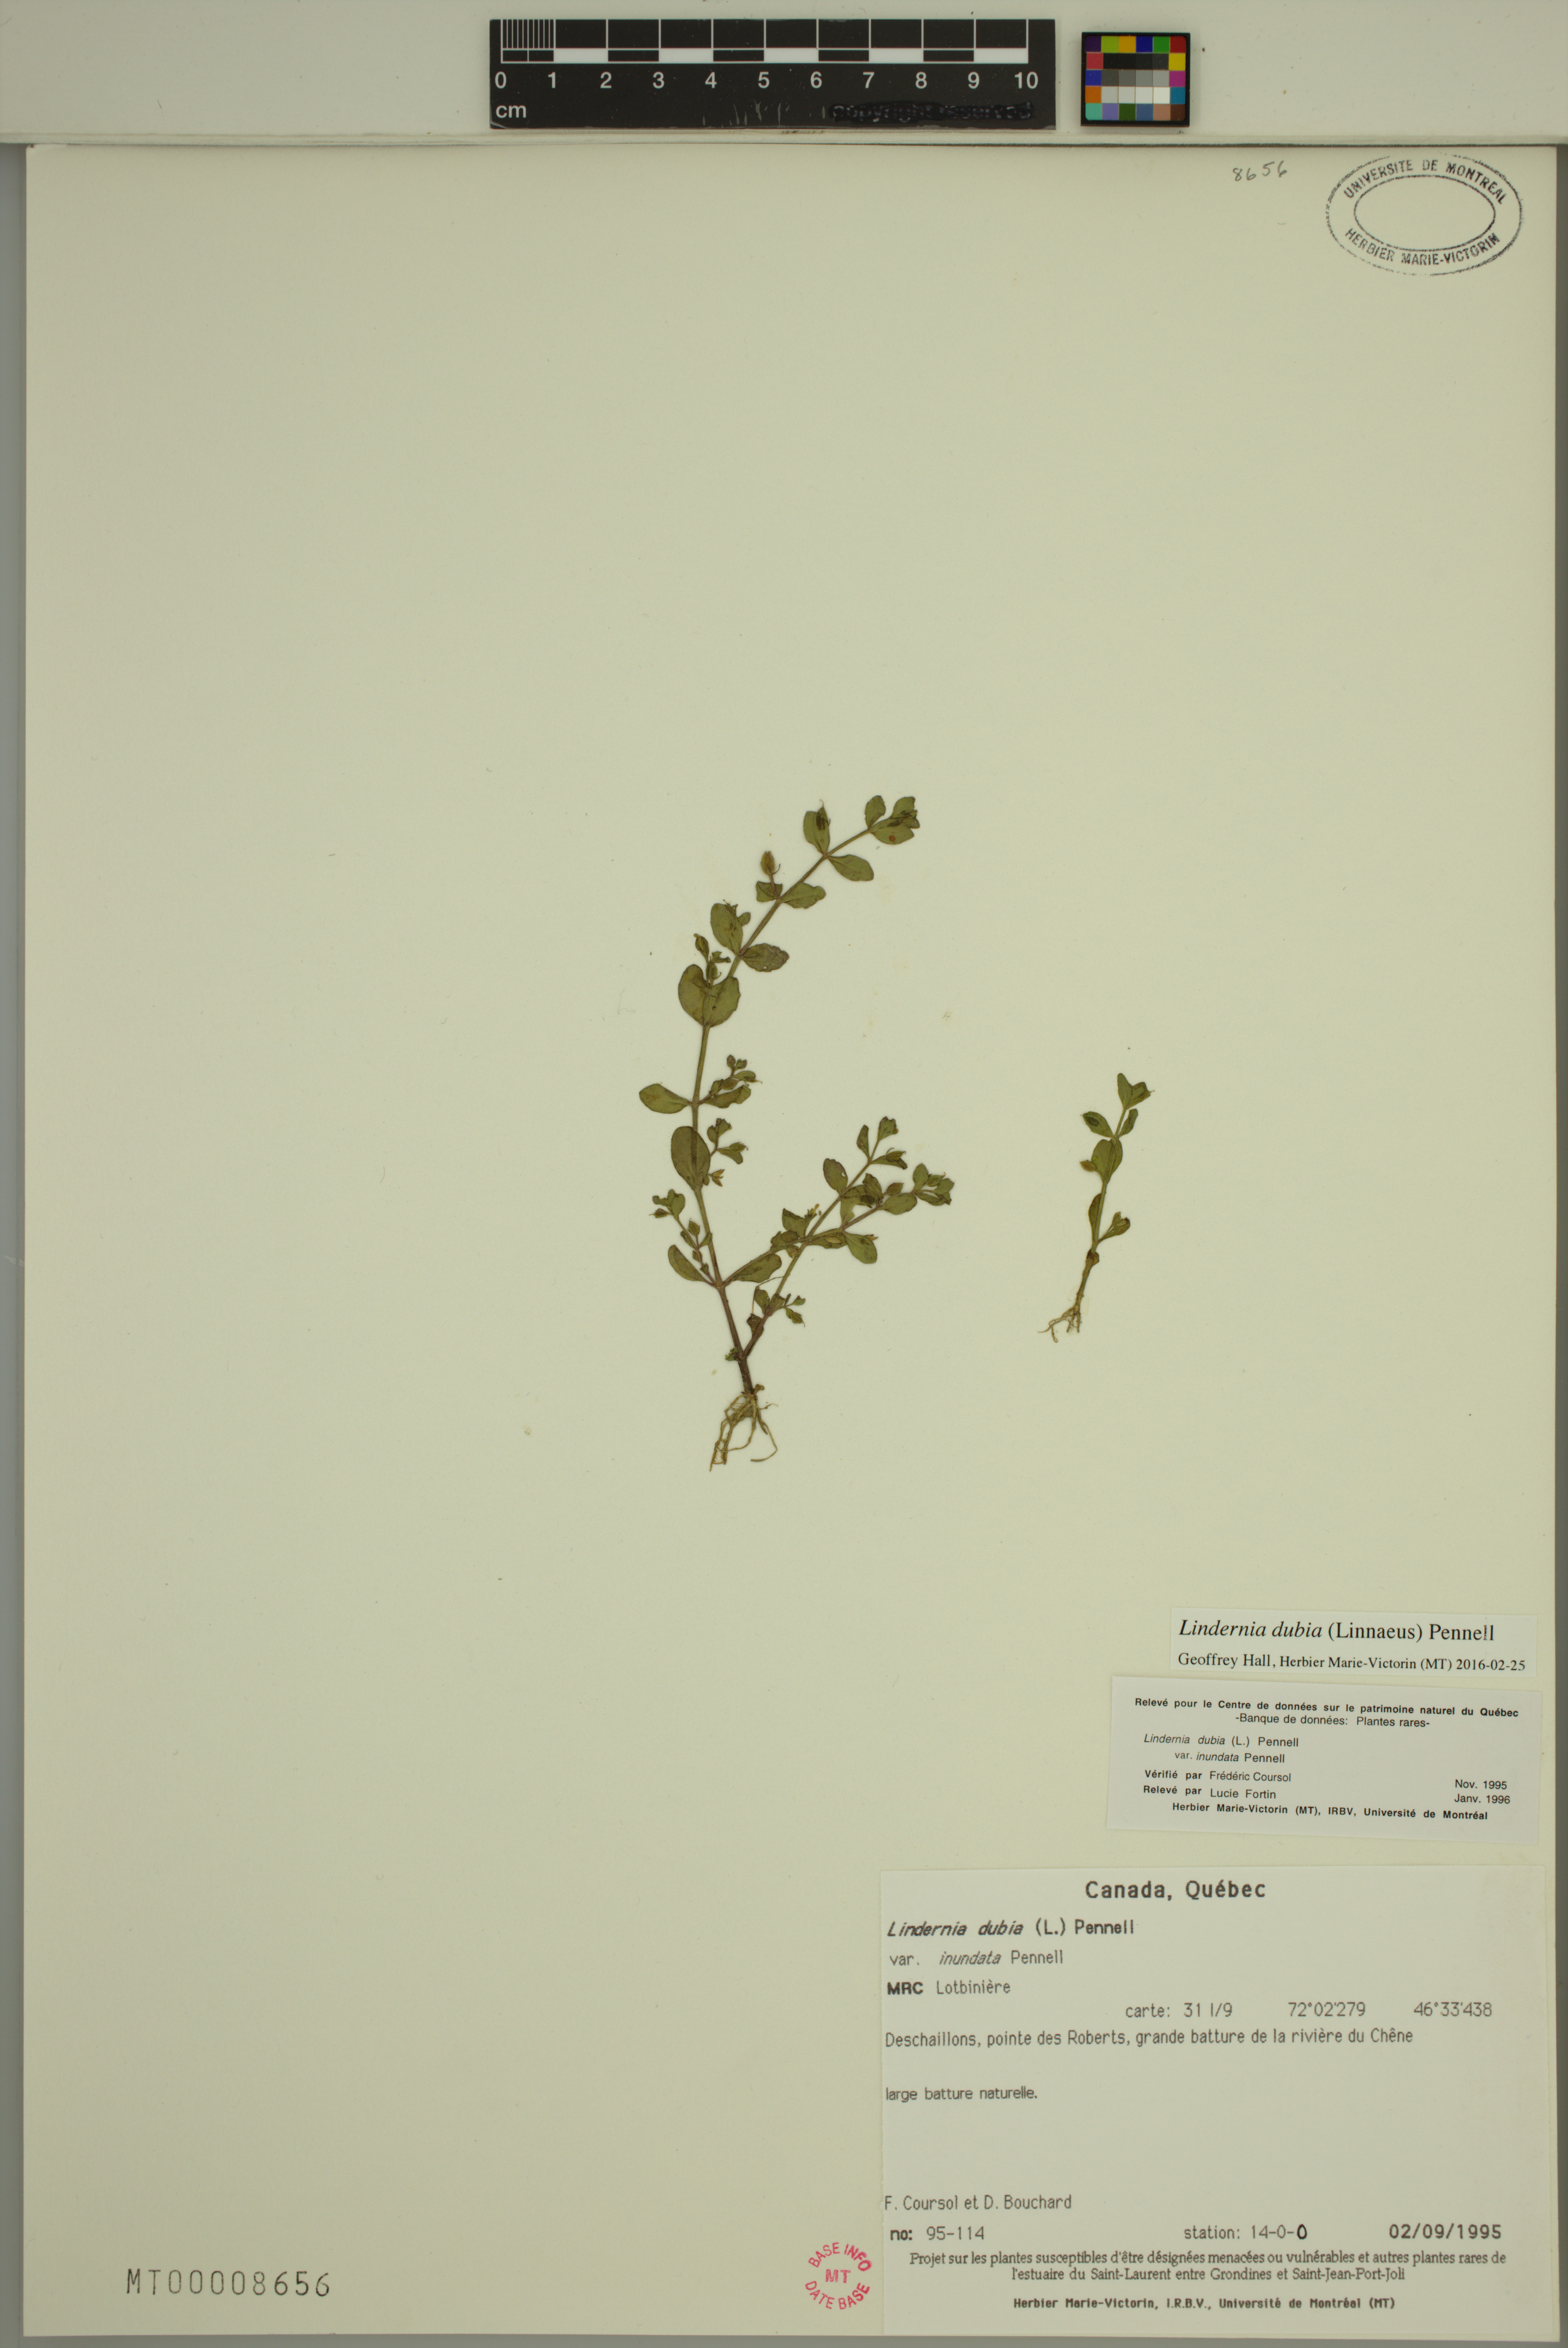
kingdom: Plantae
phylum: Tracheophyta
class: Magnoliopsida
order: Lamiales
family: Linderniaceae
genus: Lindernia
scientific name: Lindernia dubia
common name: Annual false pimpernel
